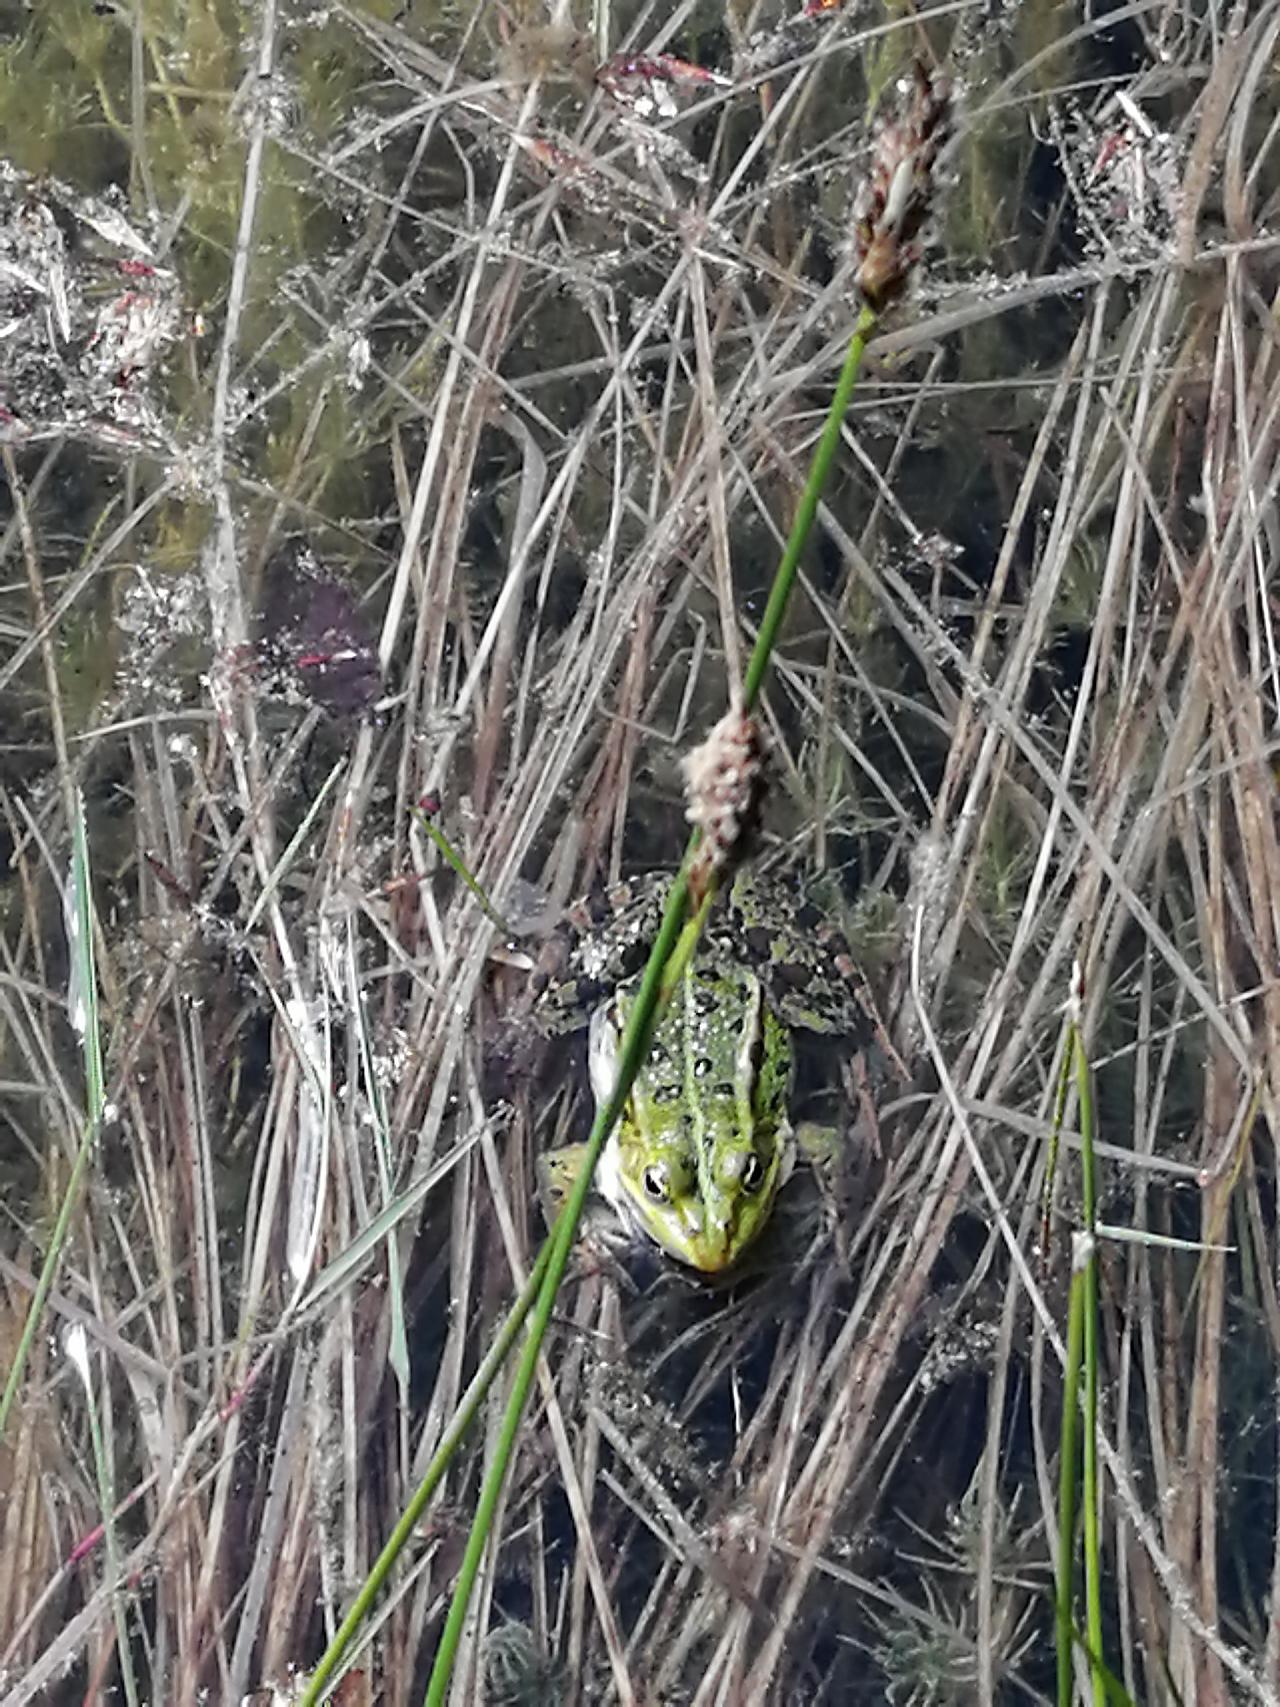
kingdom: Animalia
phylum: Chordata
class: Amphibia
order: Anura
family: Ranidae
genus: Pelophylax
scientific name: Pelophylax lessonae
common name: Grøn frø
